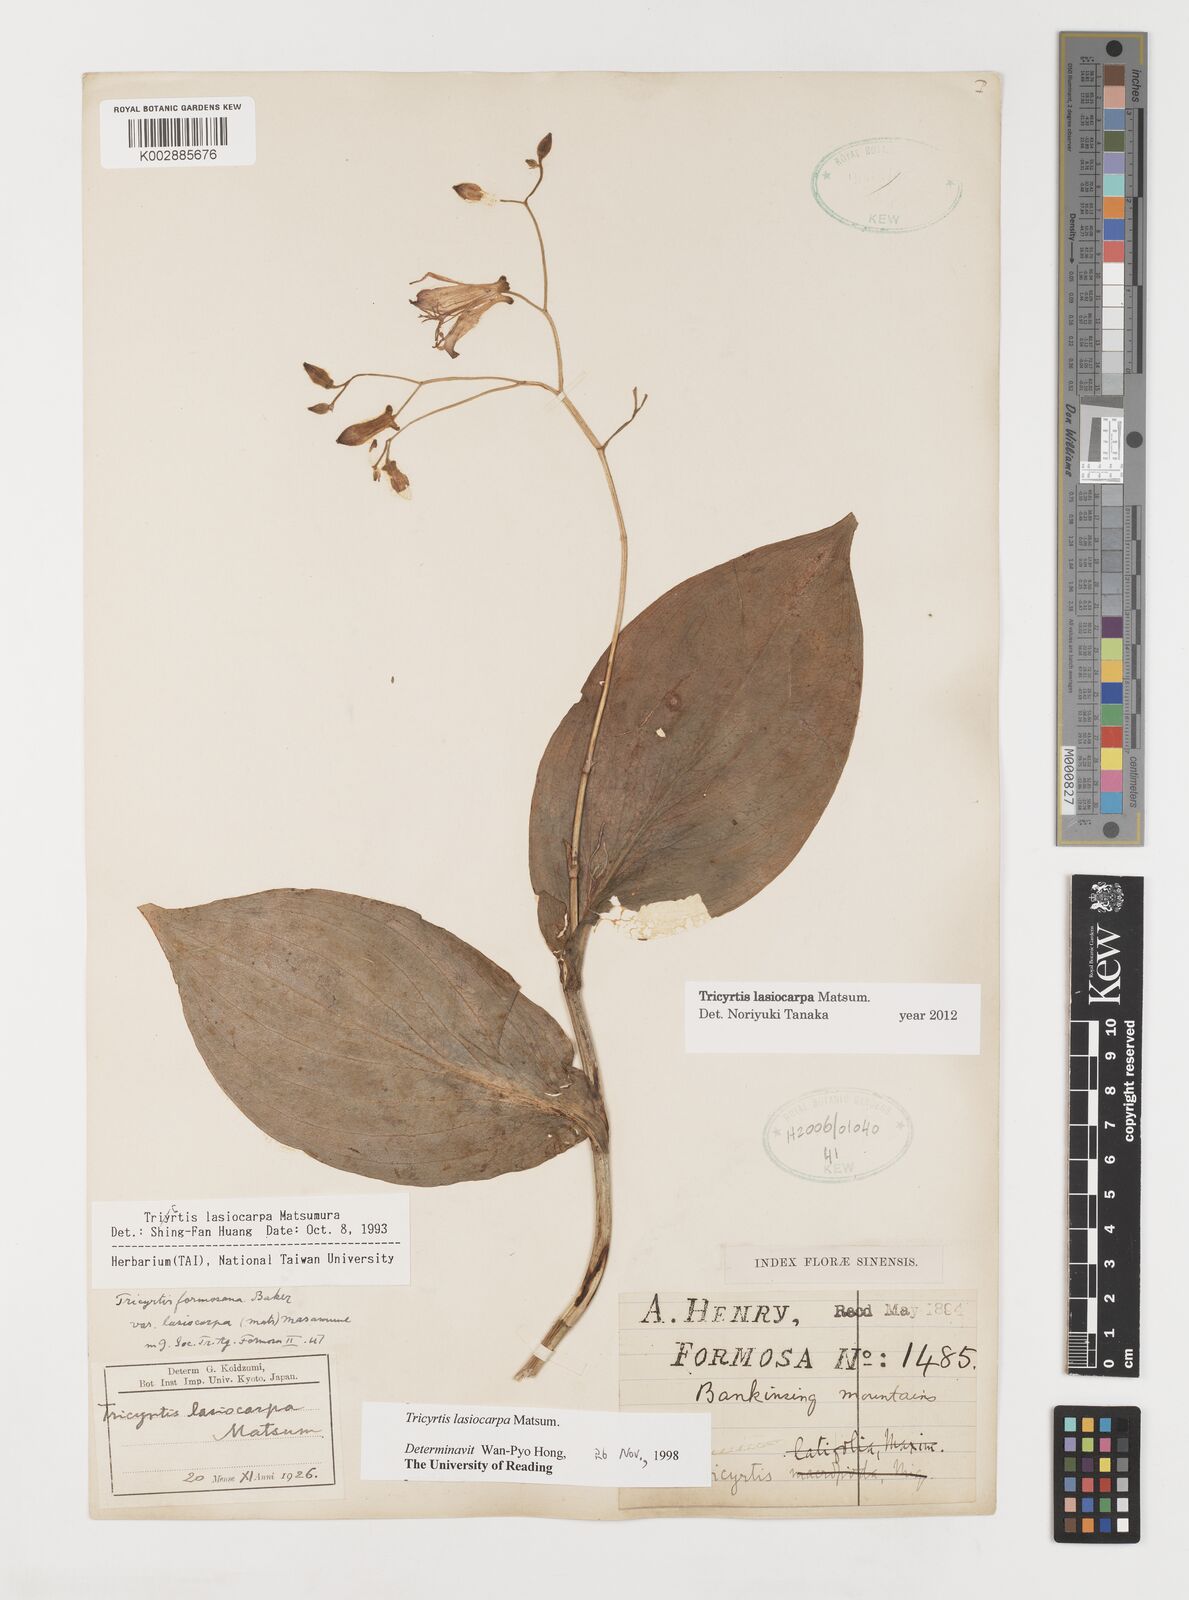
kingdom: Plantae
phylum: Tracheophyta
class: Liliopsida
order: Liliales
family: Liliaceae
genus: Tricyrtis
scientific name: Tricyrtis lasiocarpa
